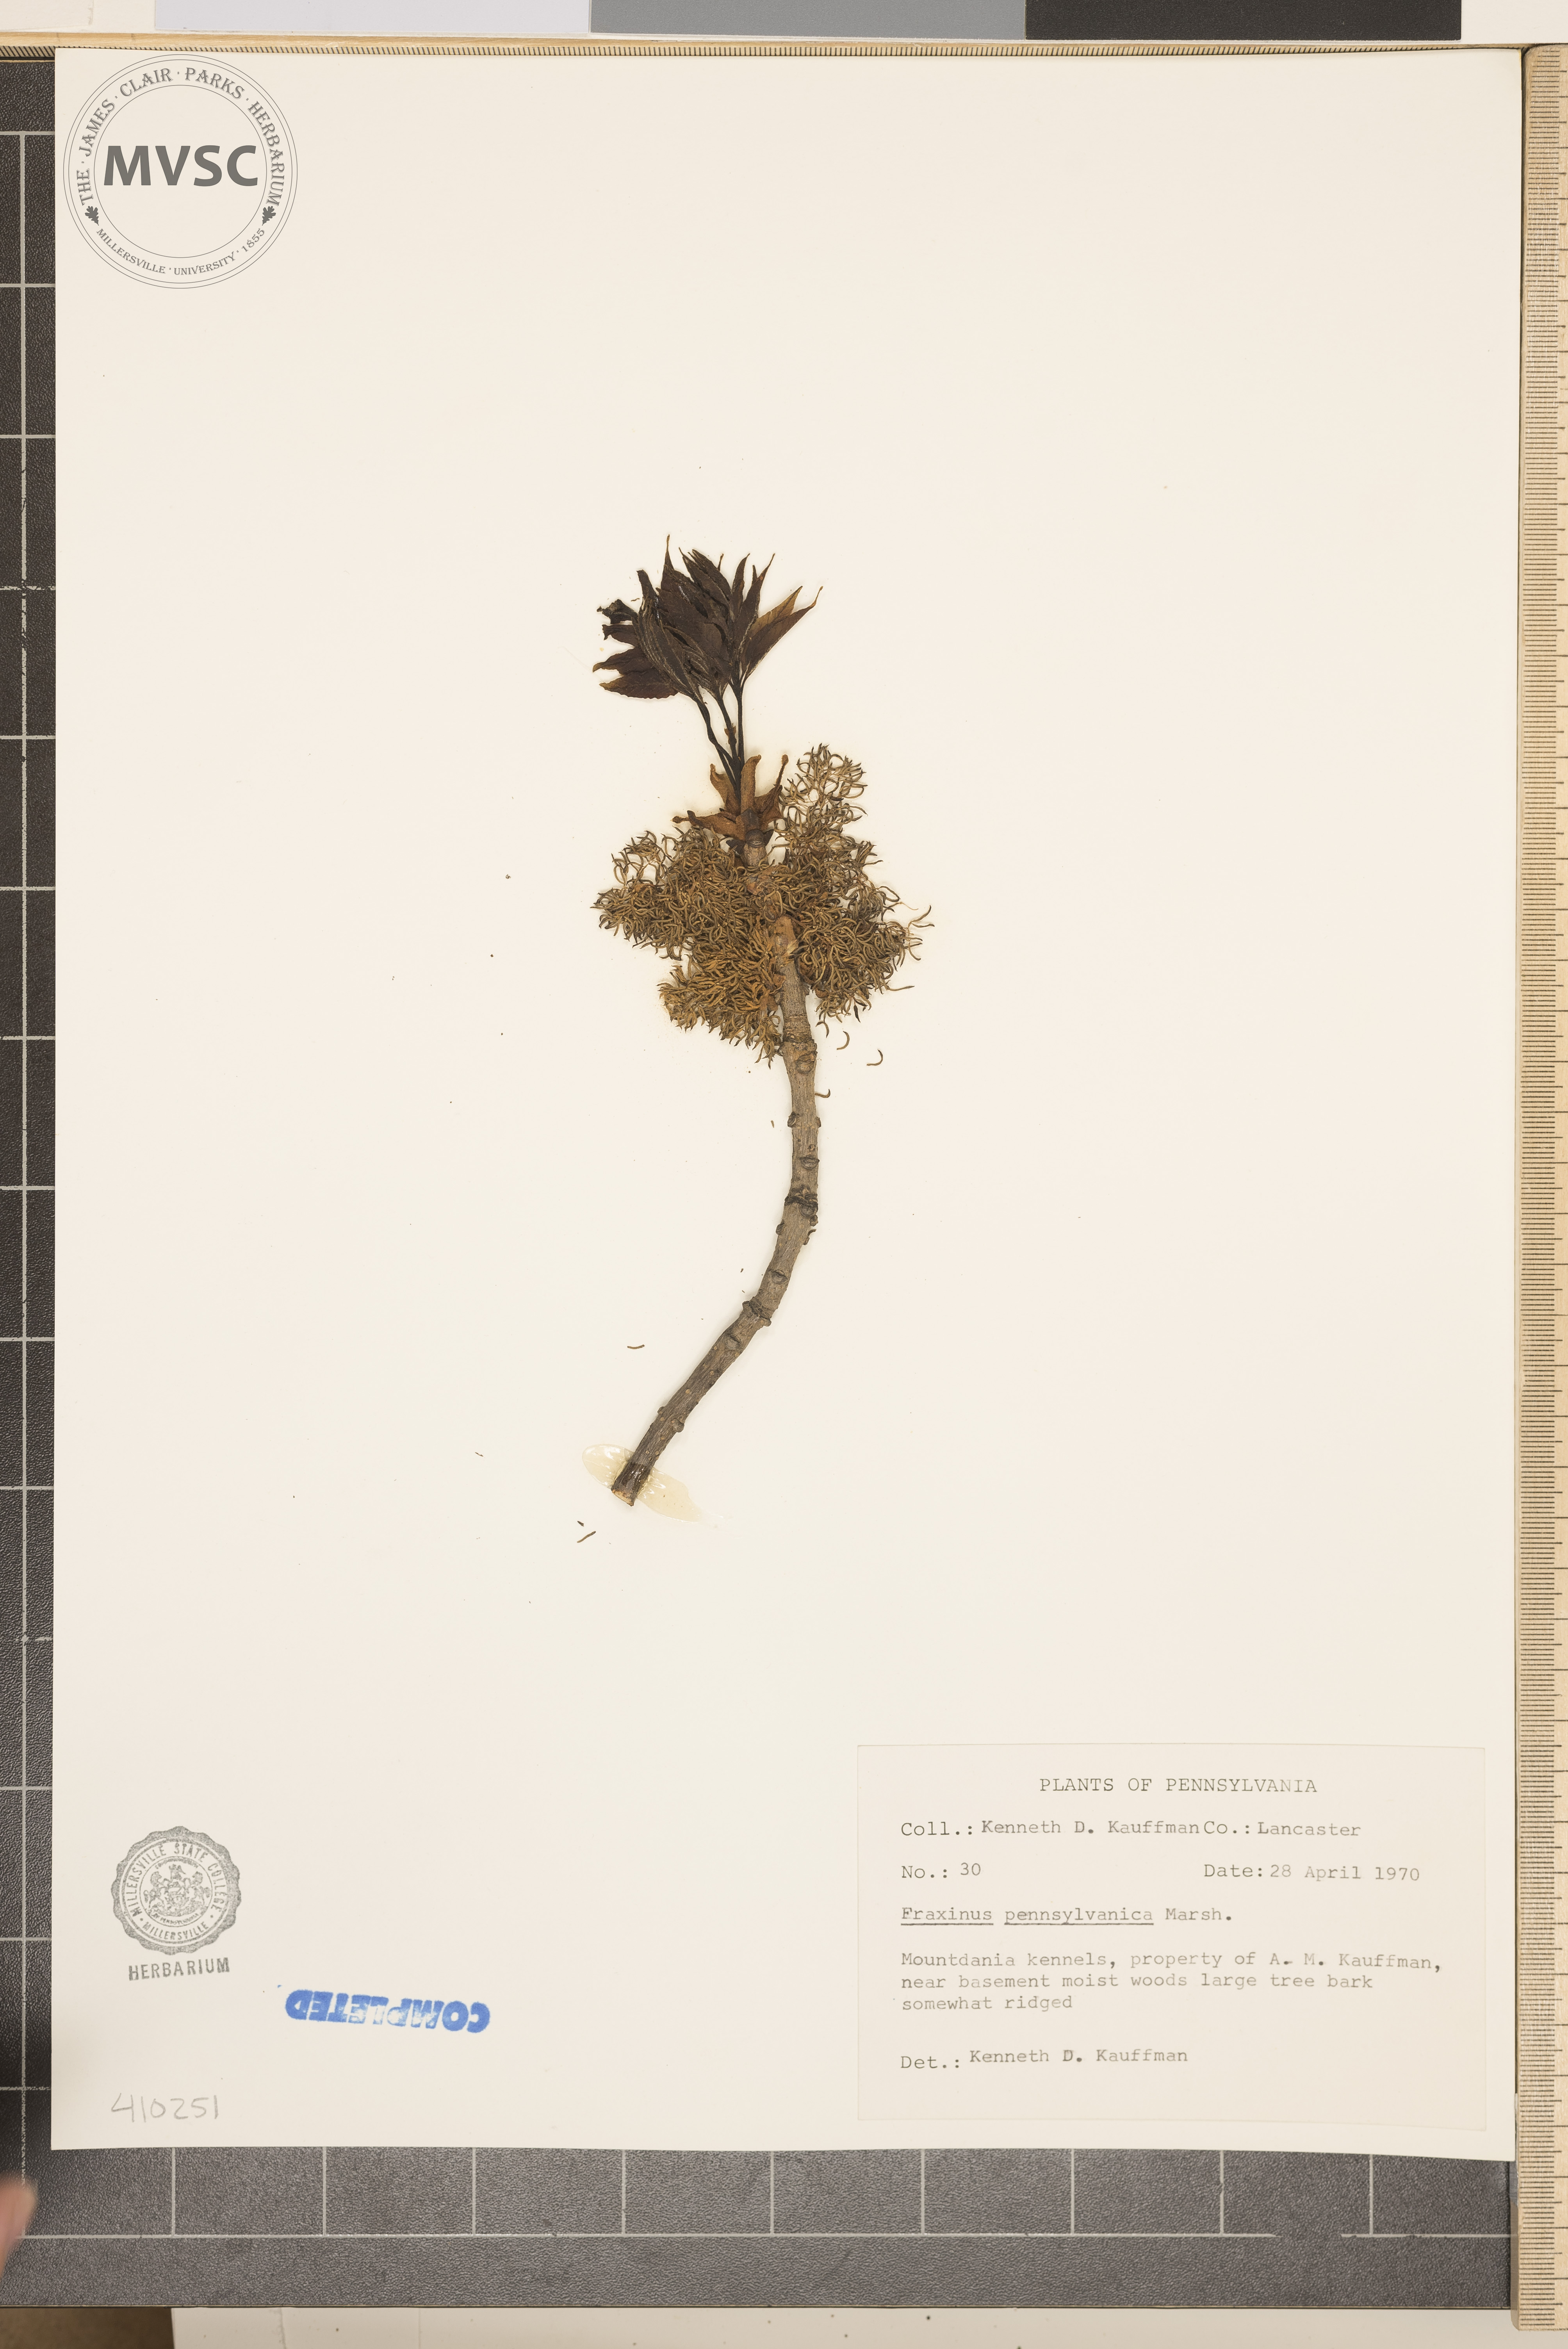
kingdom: Plantae
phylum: Tracheophyta
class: Magnoliopsida
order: Lamiales
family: Oleaceae
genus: Fraxinus
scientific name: Fraxinus pennsylvanica
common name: Green ash
